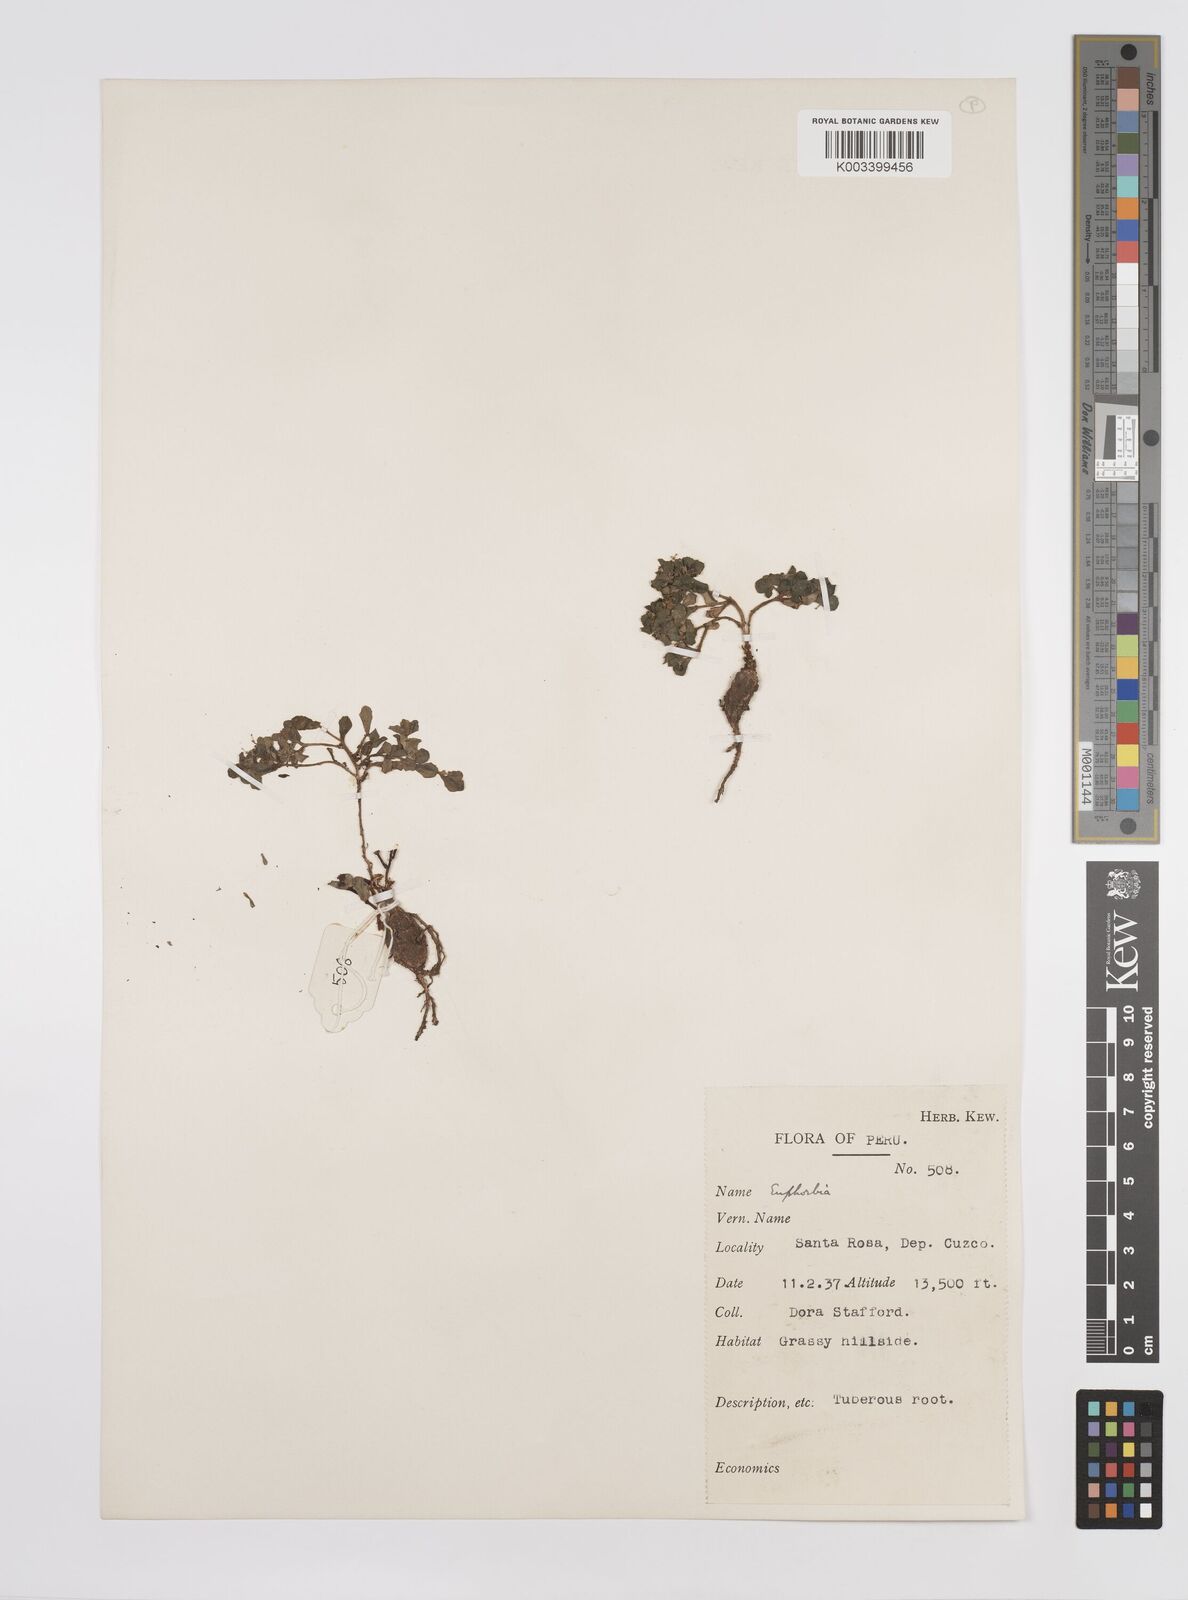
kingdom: Plantae
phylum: Tracheophyta
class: Magnoliopsida
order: Malpighiales
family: Euphorbiaceae
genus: Euphorbia
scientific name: Euphorbia
